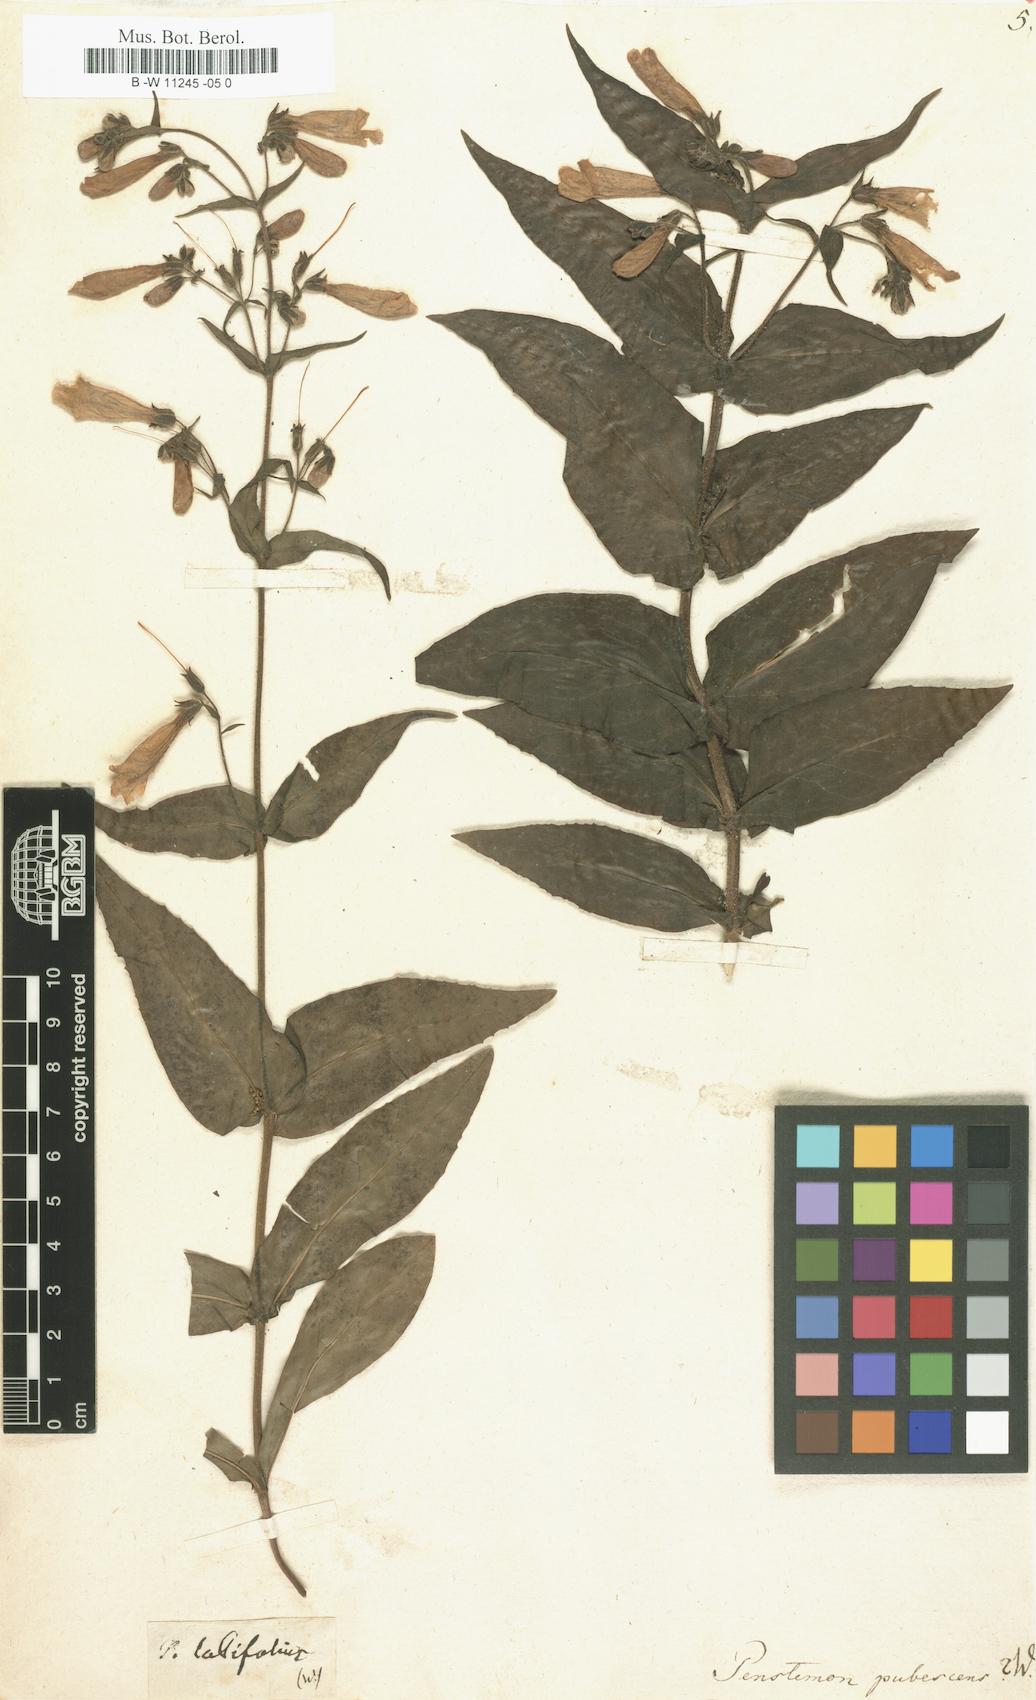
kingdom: Plantae
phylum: Tracheophyta
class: Magnoliopsida
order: Lamiales
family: Scrophulariaceae
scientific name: Scrophulariaceae
